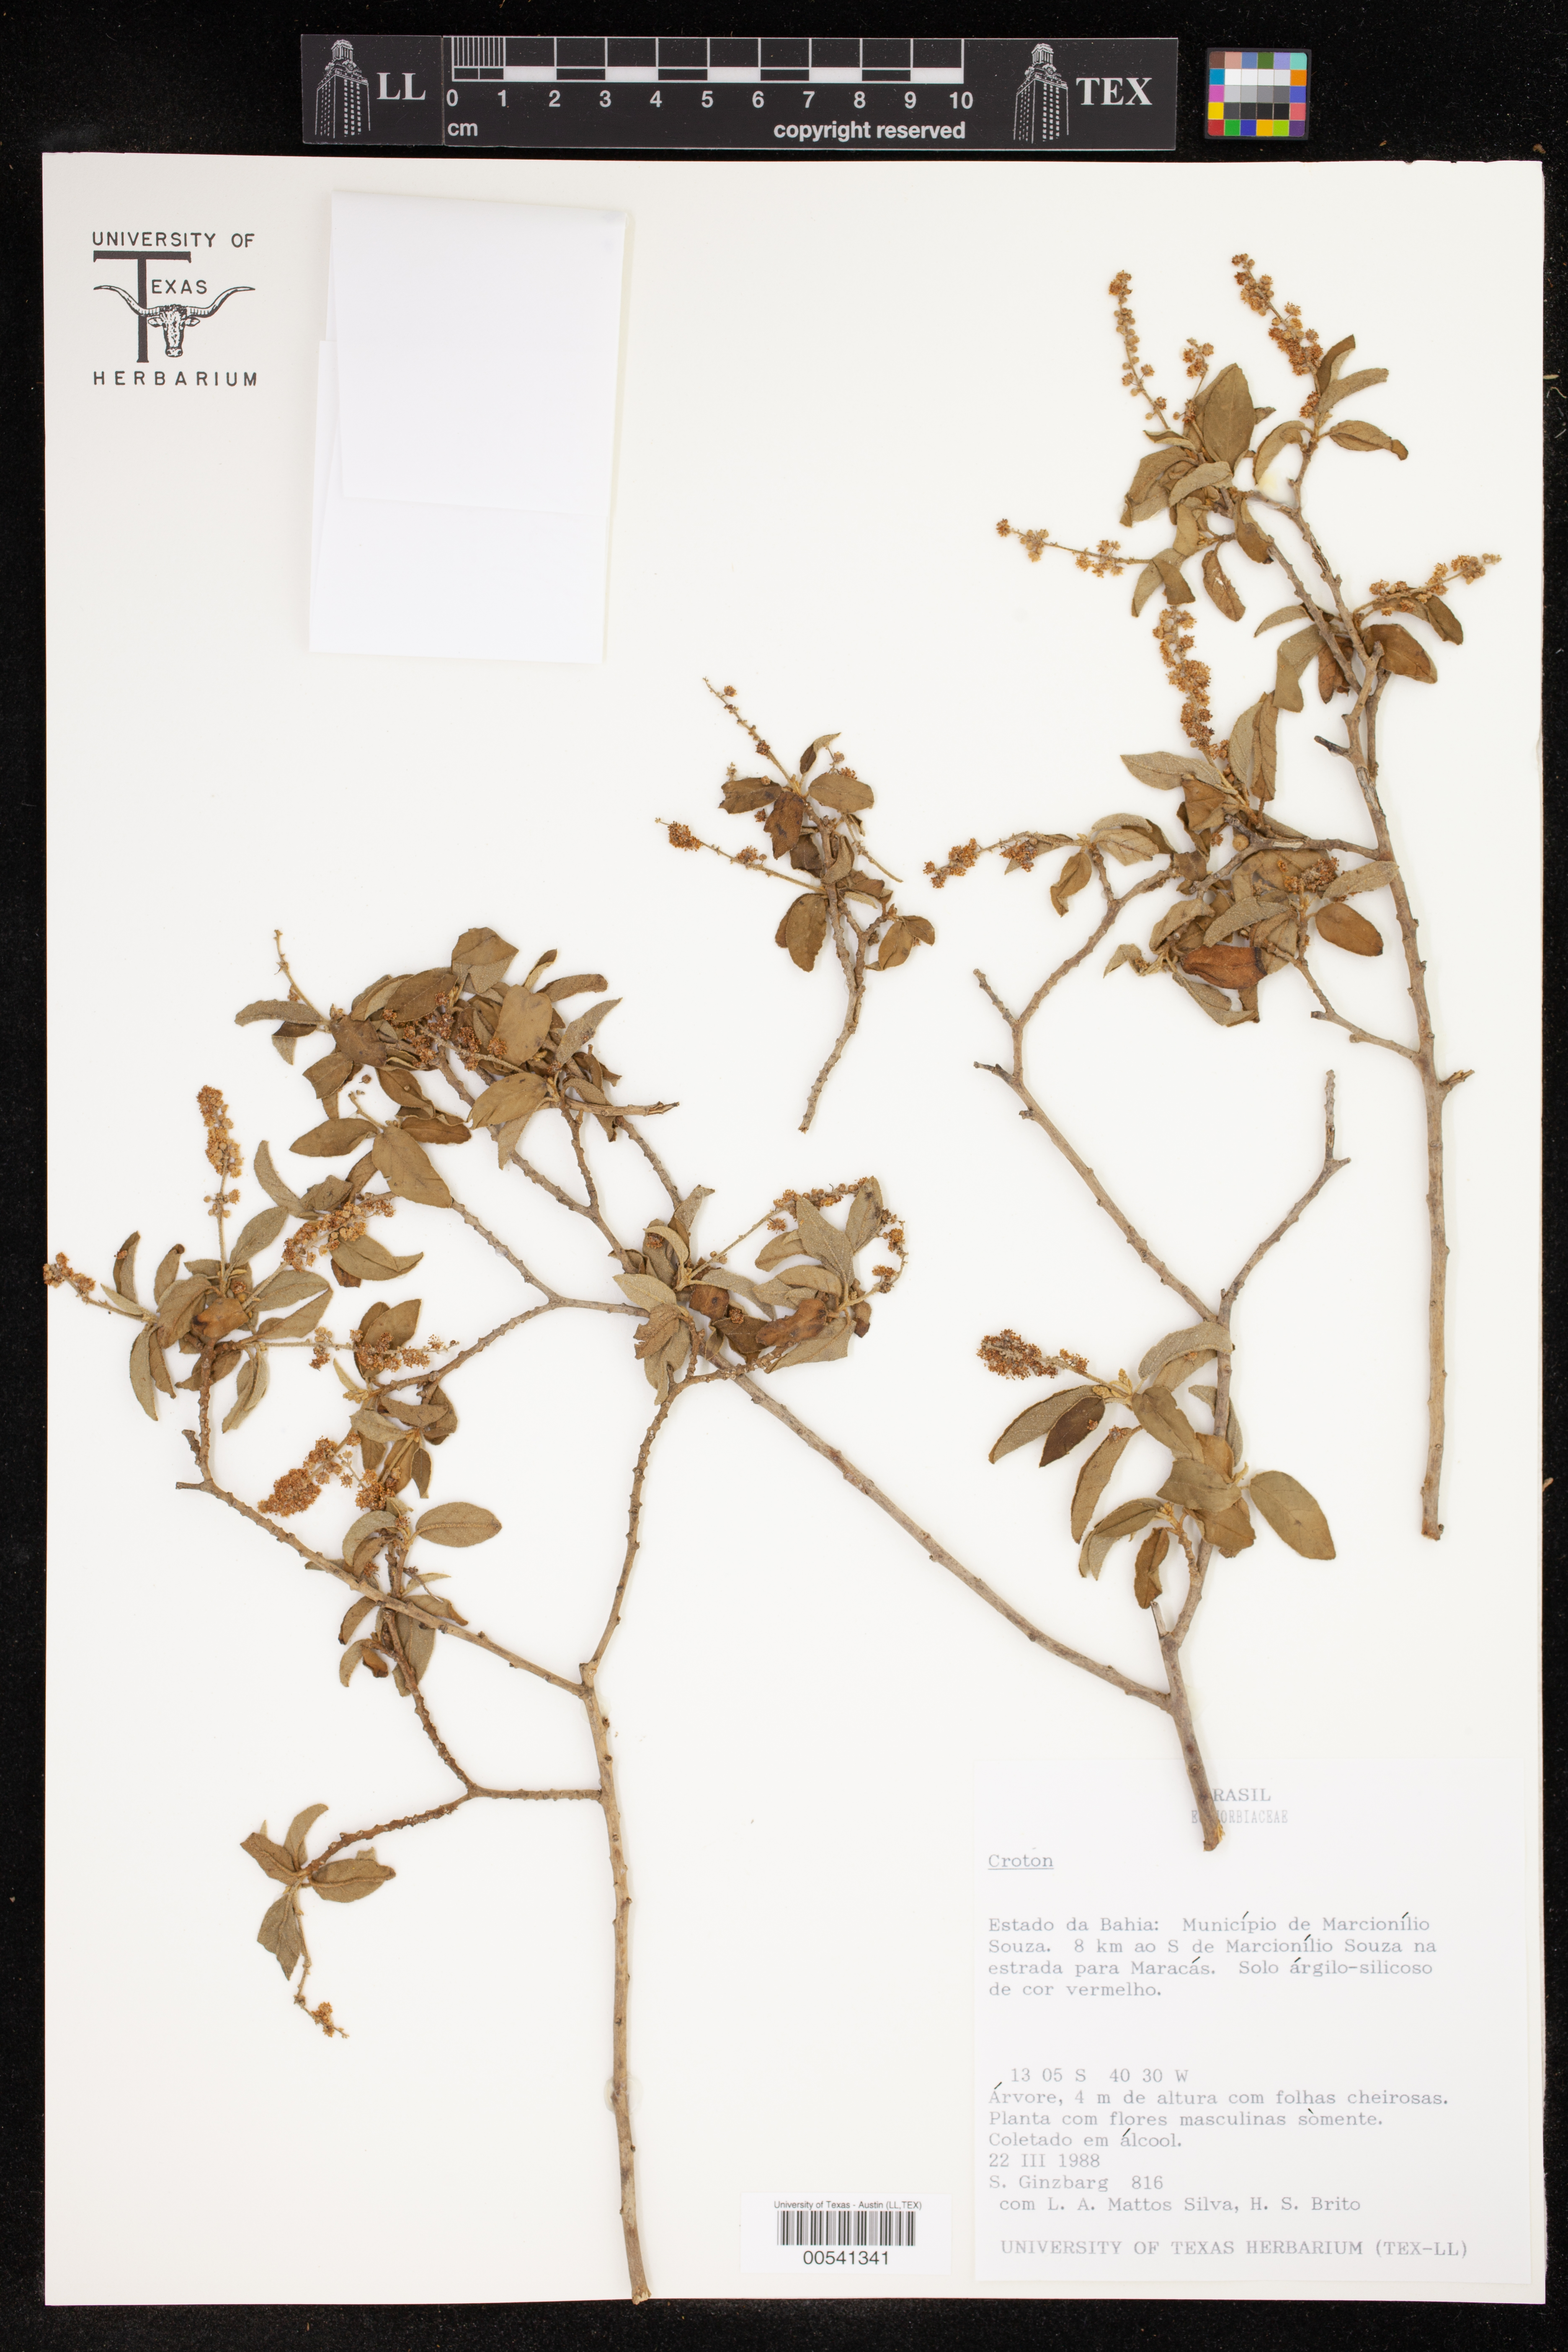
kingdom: Plantae
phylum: Tracheophyta
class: Magnoliopsida
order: Malpighiales
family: Euphorbiaceae
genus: Croton
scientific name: Croton
